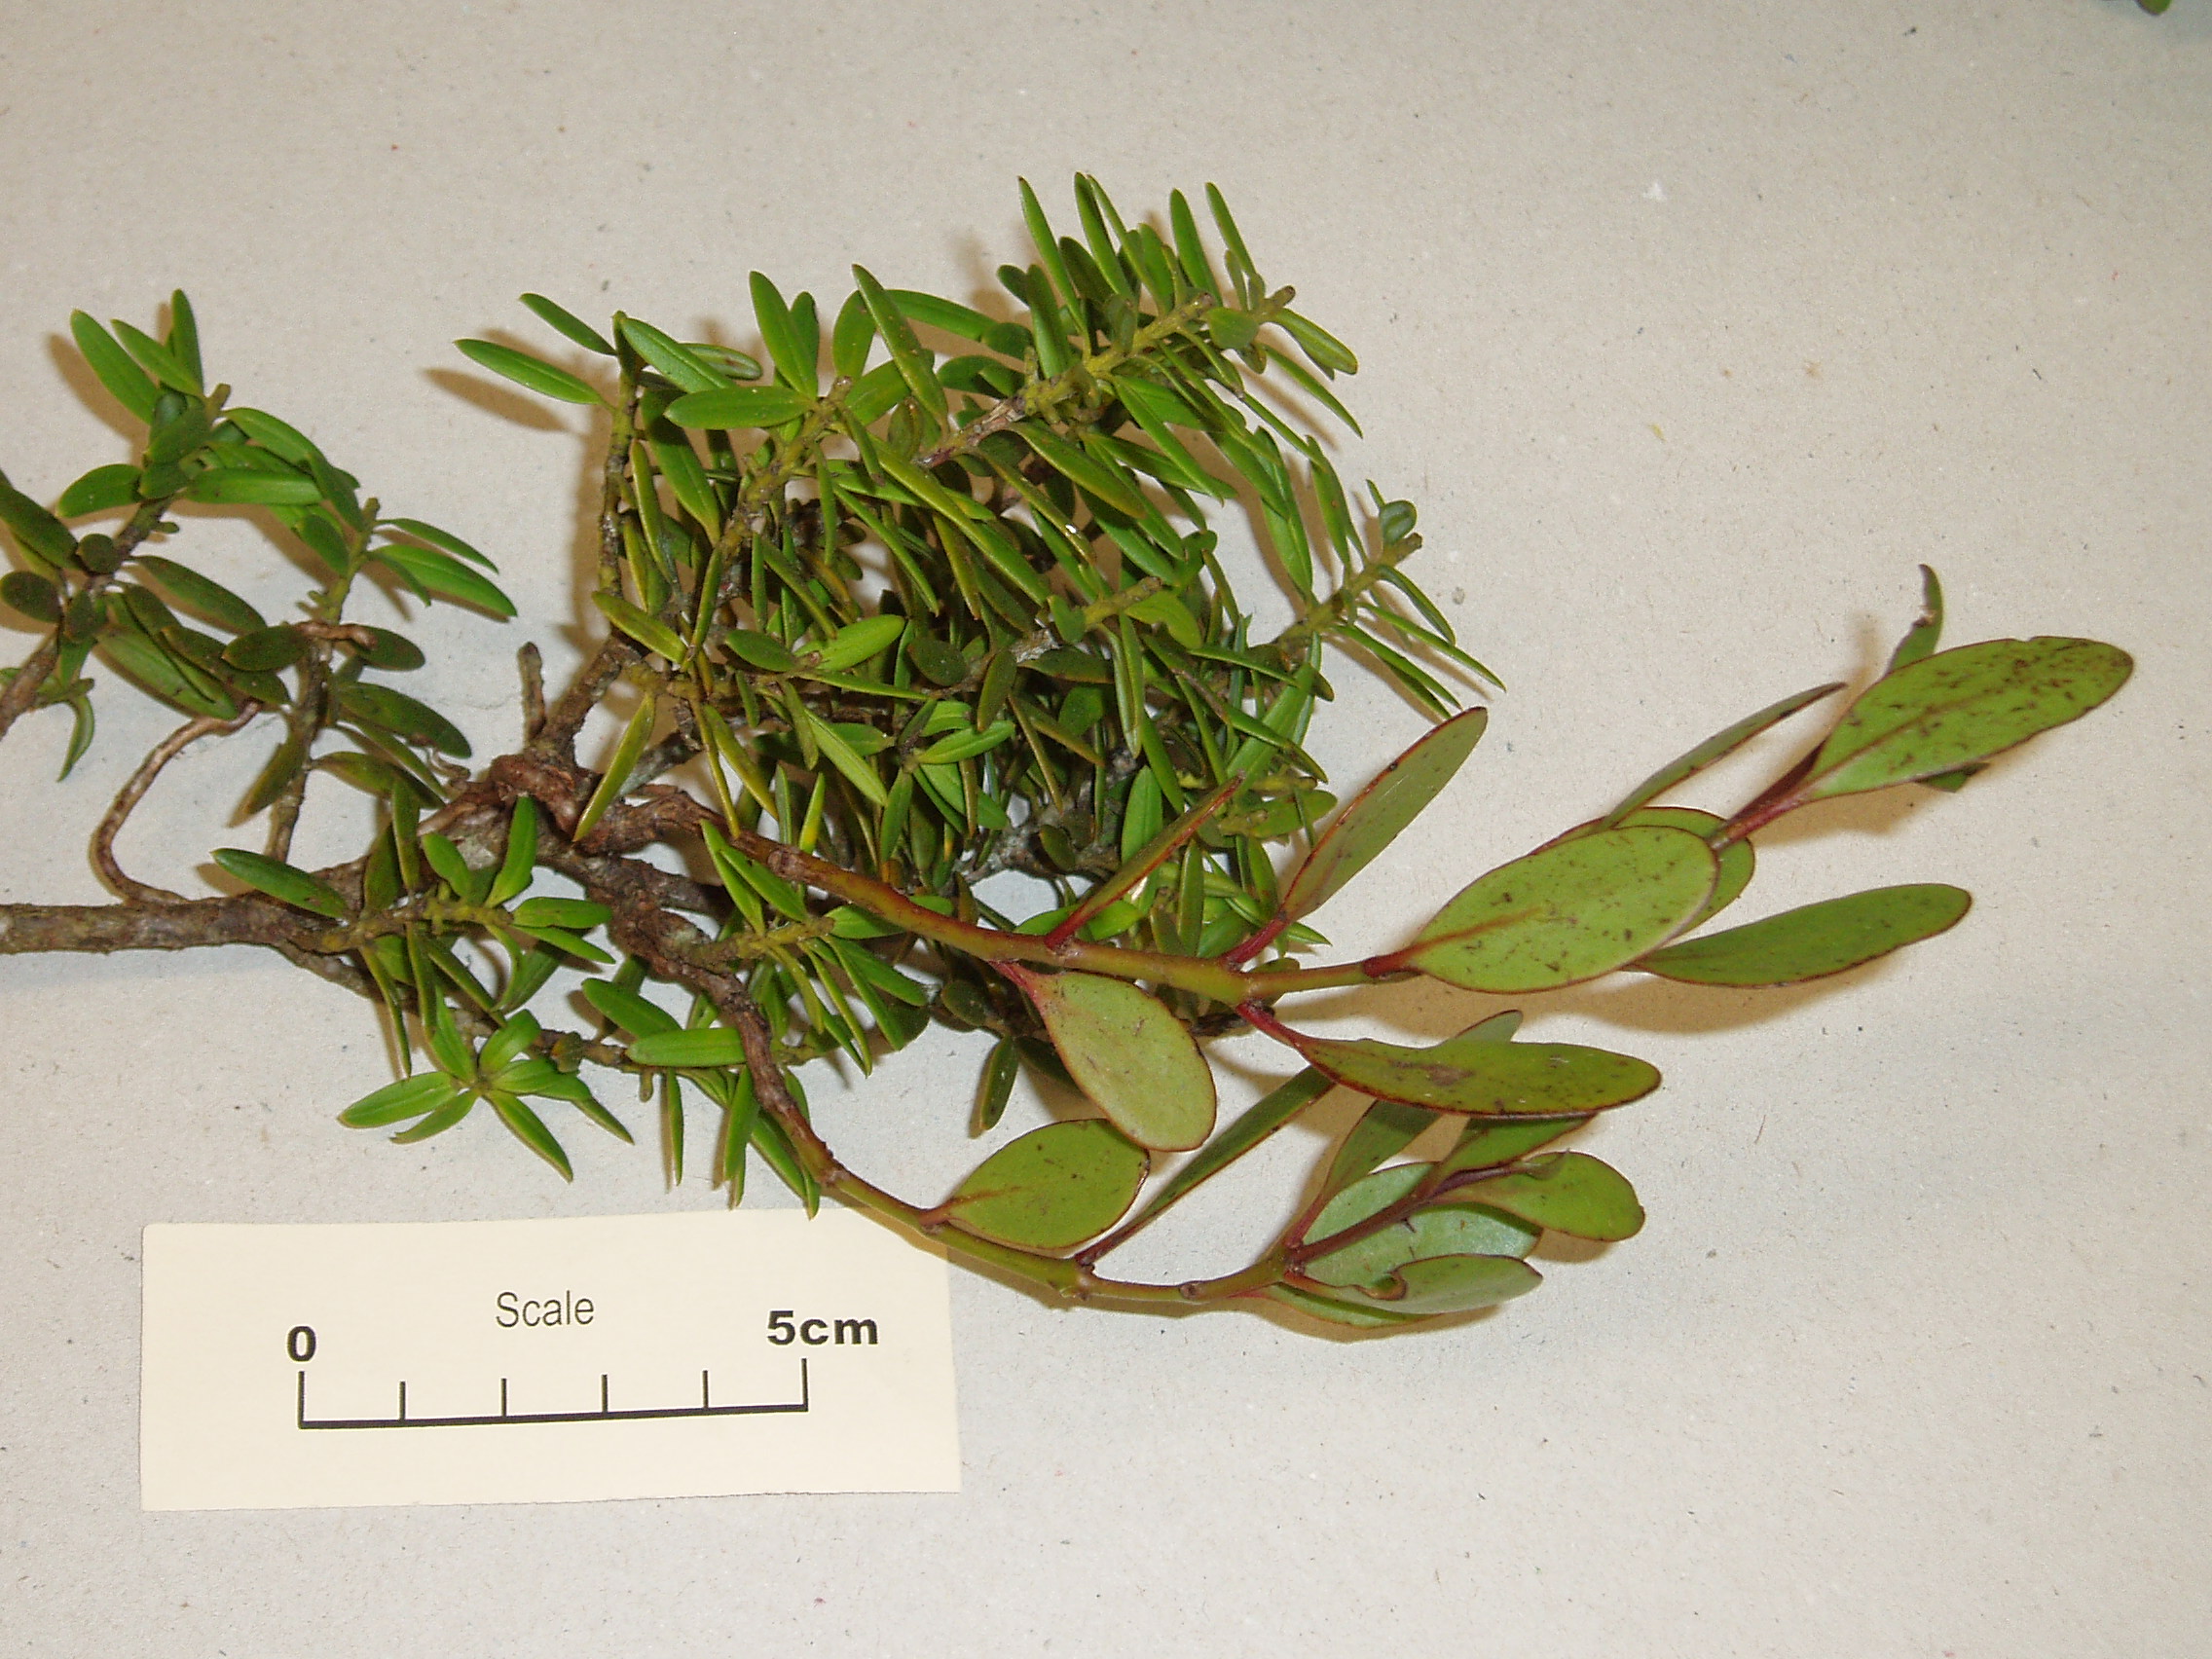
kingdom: Plantae
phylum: Tracheophyta
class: Magnoliopsida
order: Santalales
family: Loranthaceae
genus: Ileostylus
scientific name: Ileostylus micranthus
